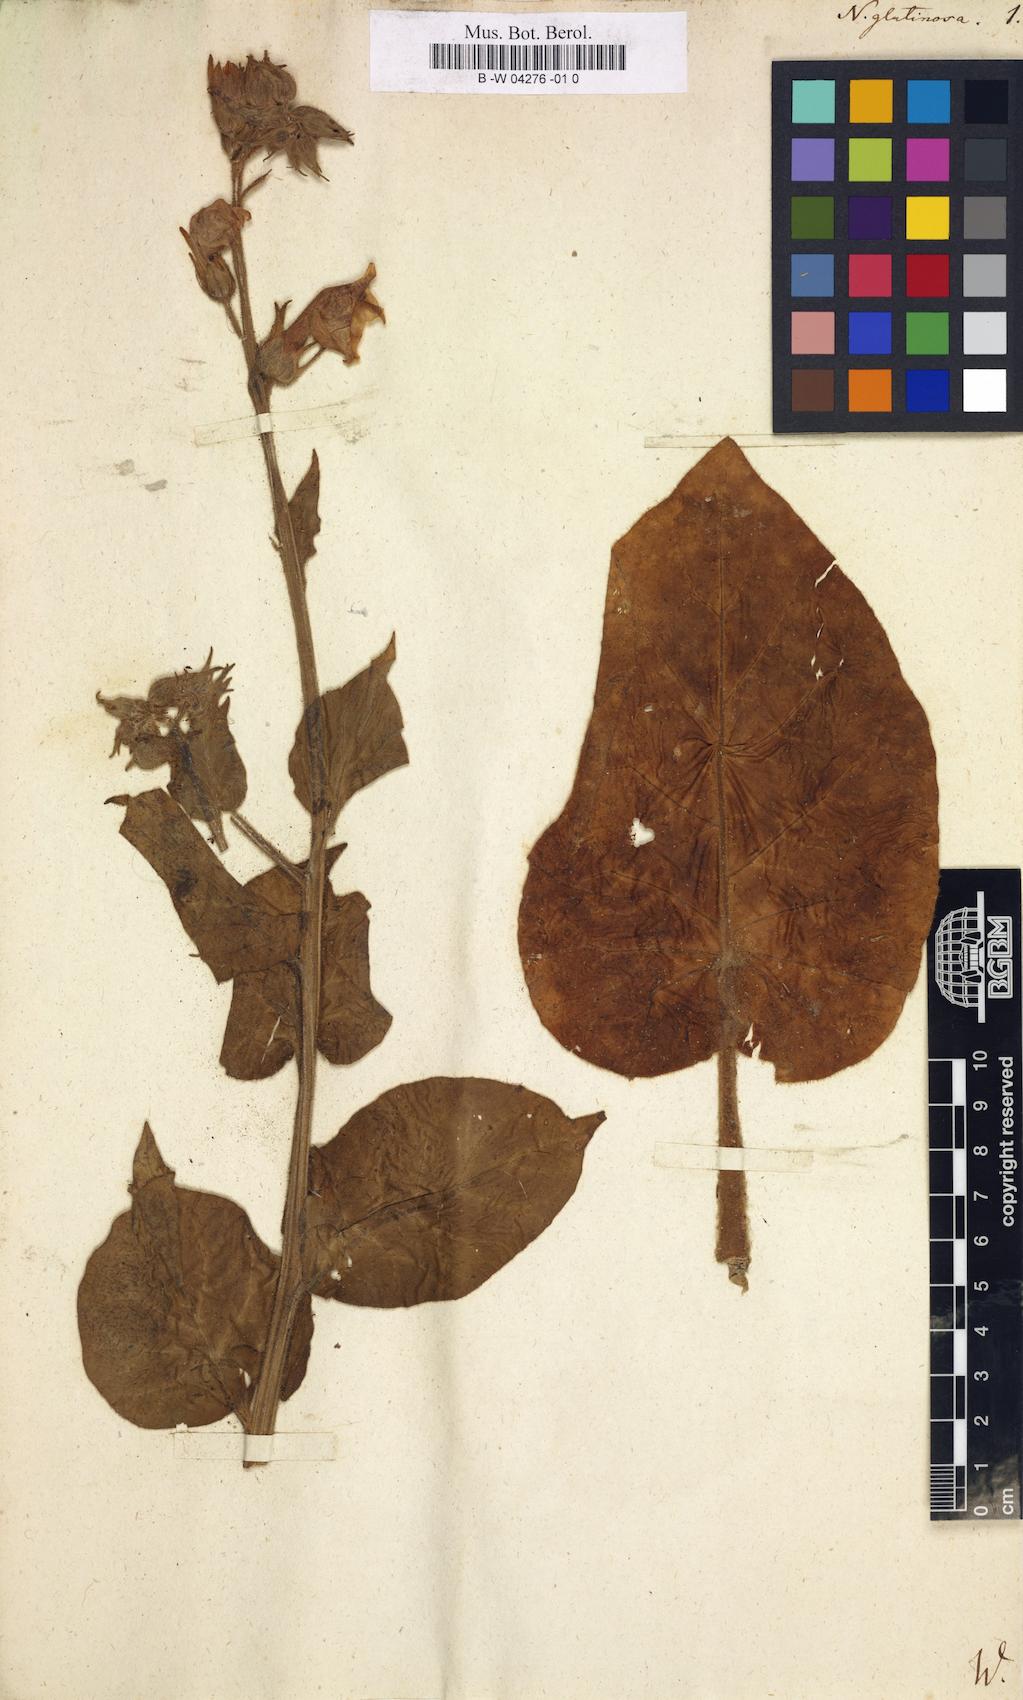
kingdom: Plantae
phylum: Tracheophyta
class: Magnoliopsida
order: Solanales
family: Solanaceae
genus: Nicotiana
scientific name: Nicotiana glutinosa
